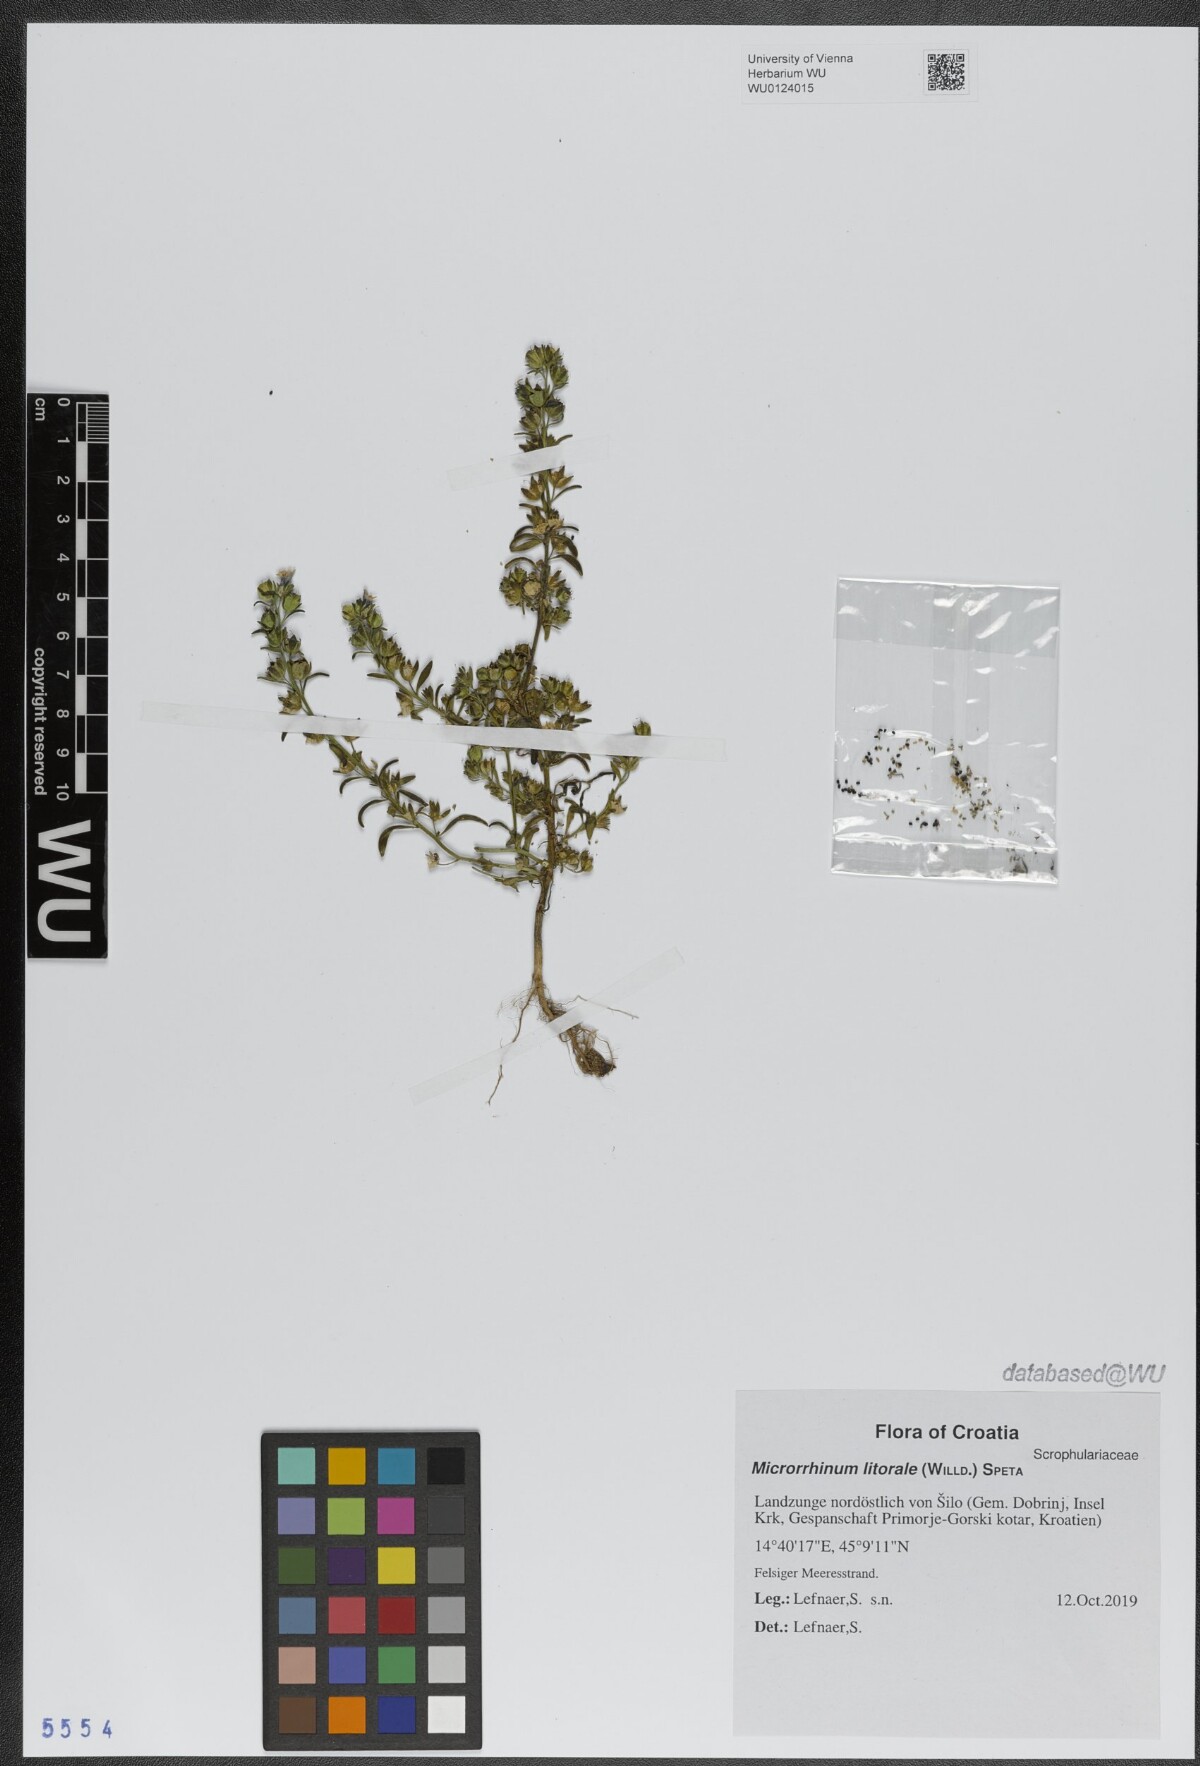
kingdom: Plantae
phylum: Tracheophyta
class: Magnoliopsida
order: Lamiales
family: Plantaginaceae
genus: Chaenorhinum
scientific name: Chaenorhinum litorale
